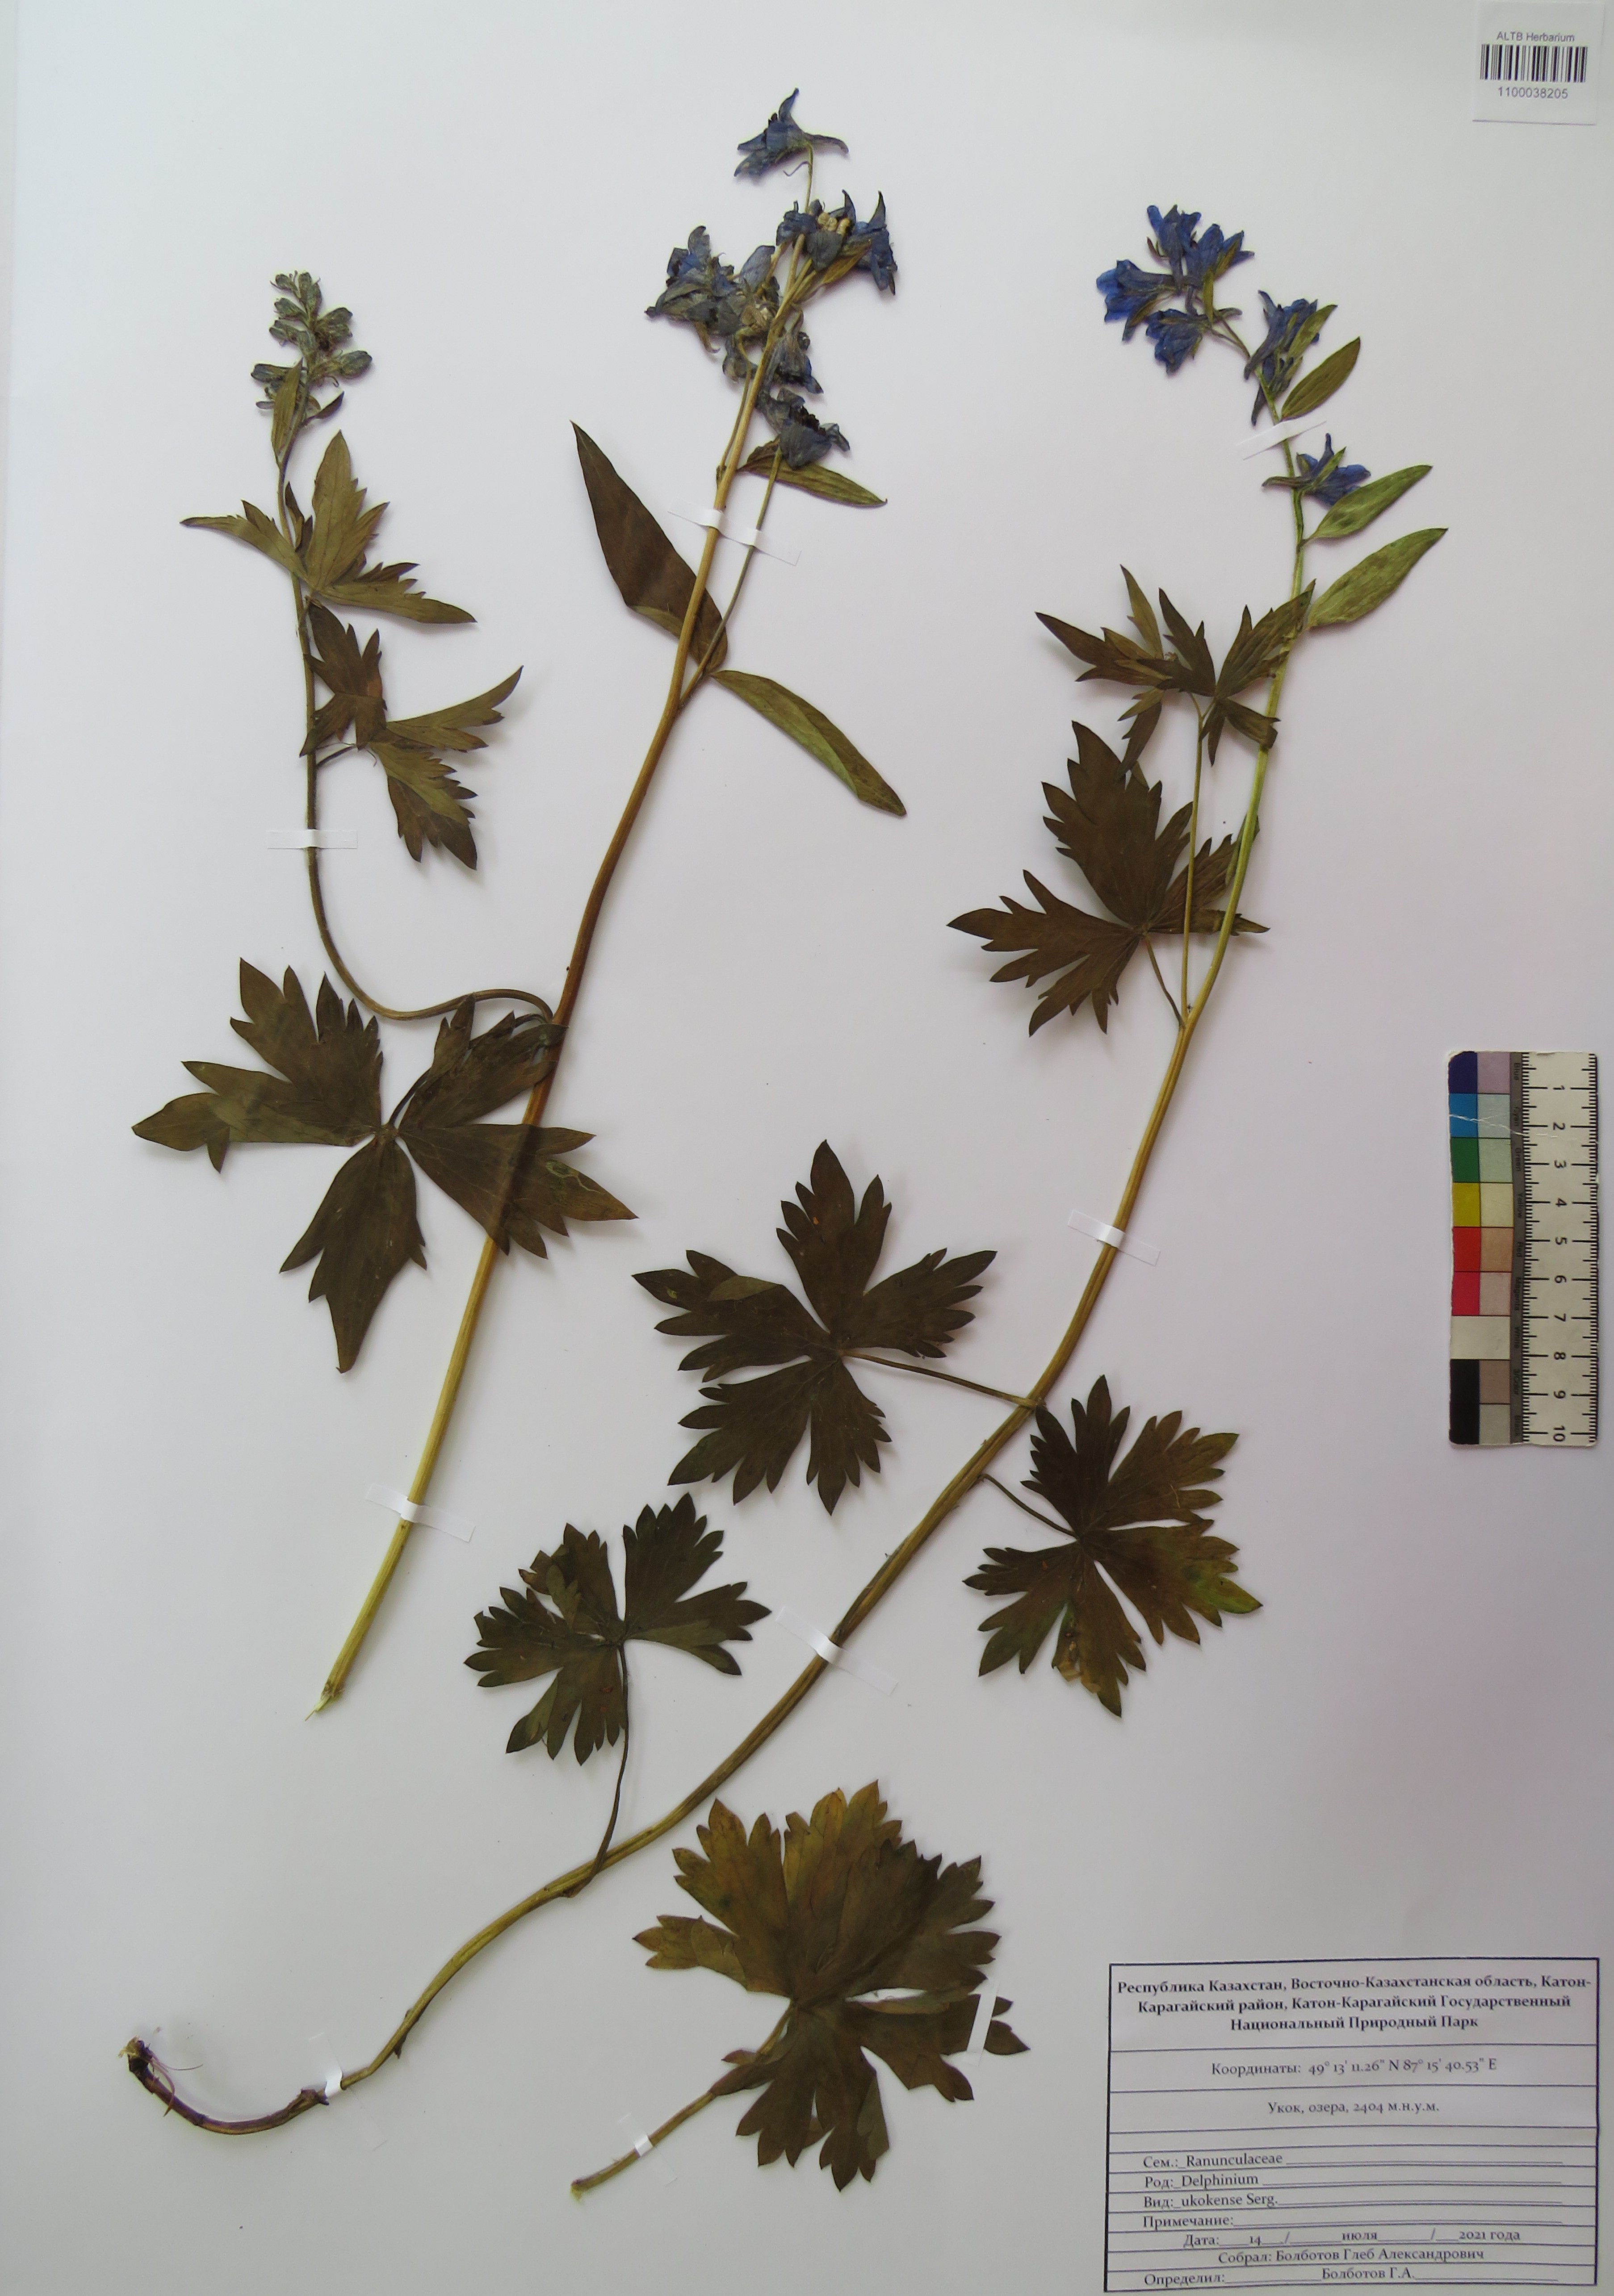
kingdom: Plantae
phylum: Tracheophyta
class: Magnoliopsida
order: Ranunculales
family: Ranunculaceae
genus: Delphinium
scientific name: Delphinium ukokense
